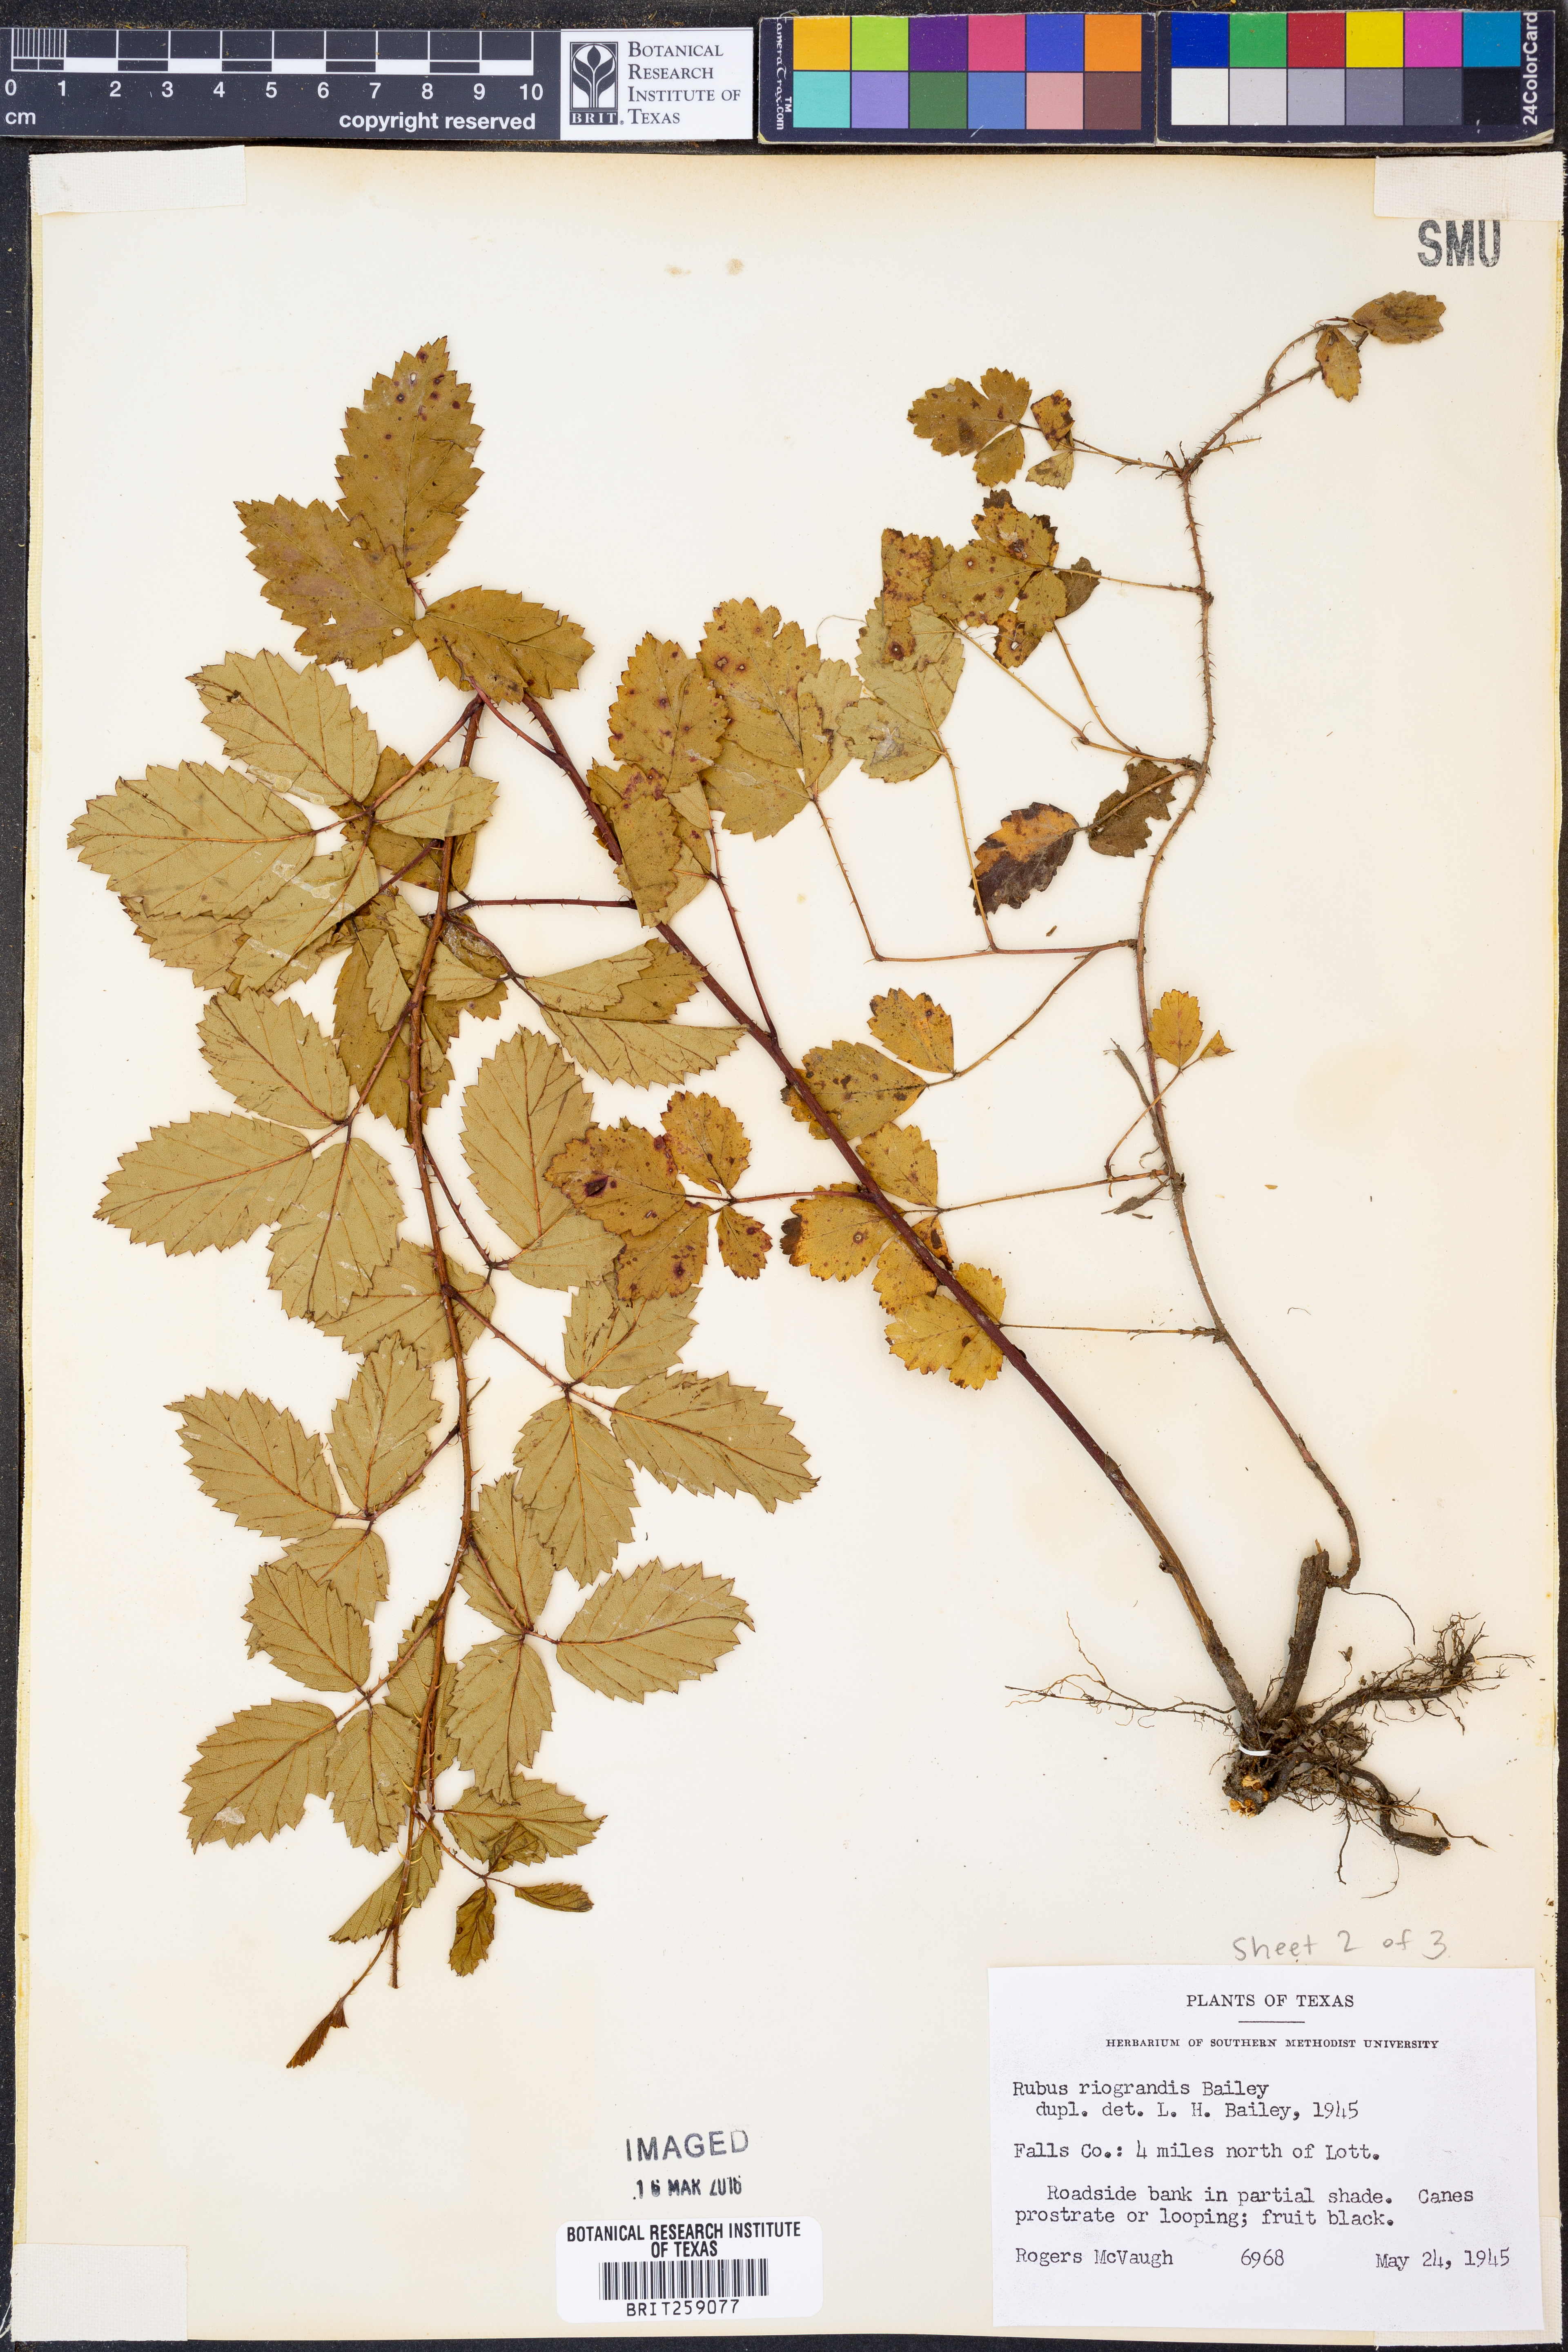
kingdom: Plantae
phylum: Tracheophyta
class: Magnoliopsida
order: Rosales
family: Rosaceae
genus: Rubus
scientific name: Rubus riograndis
